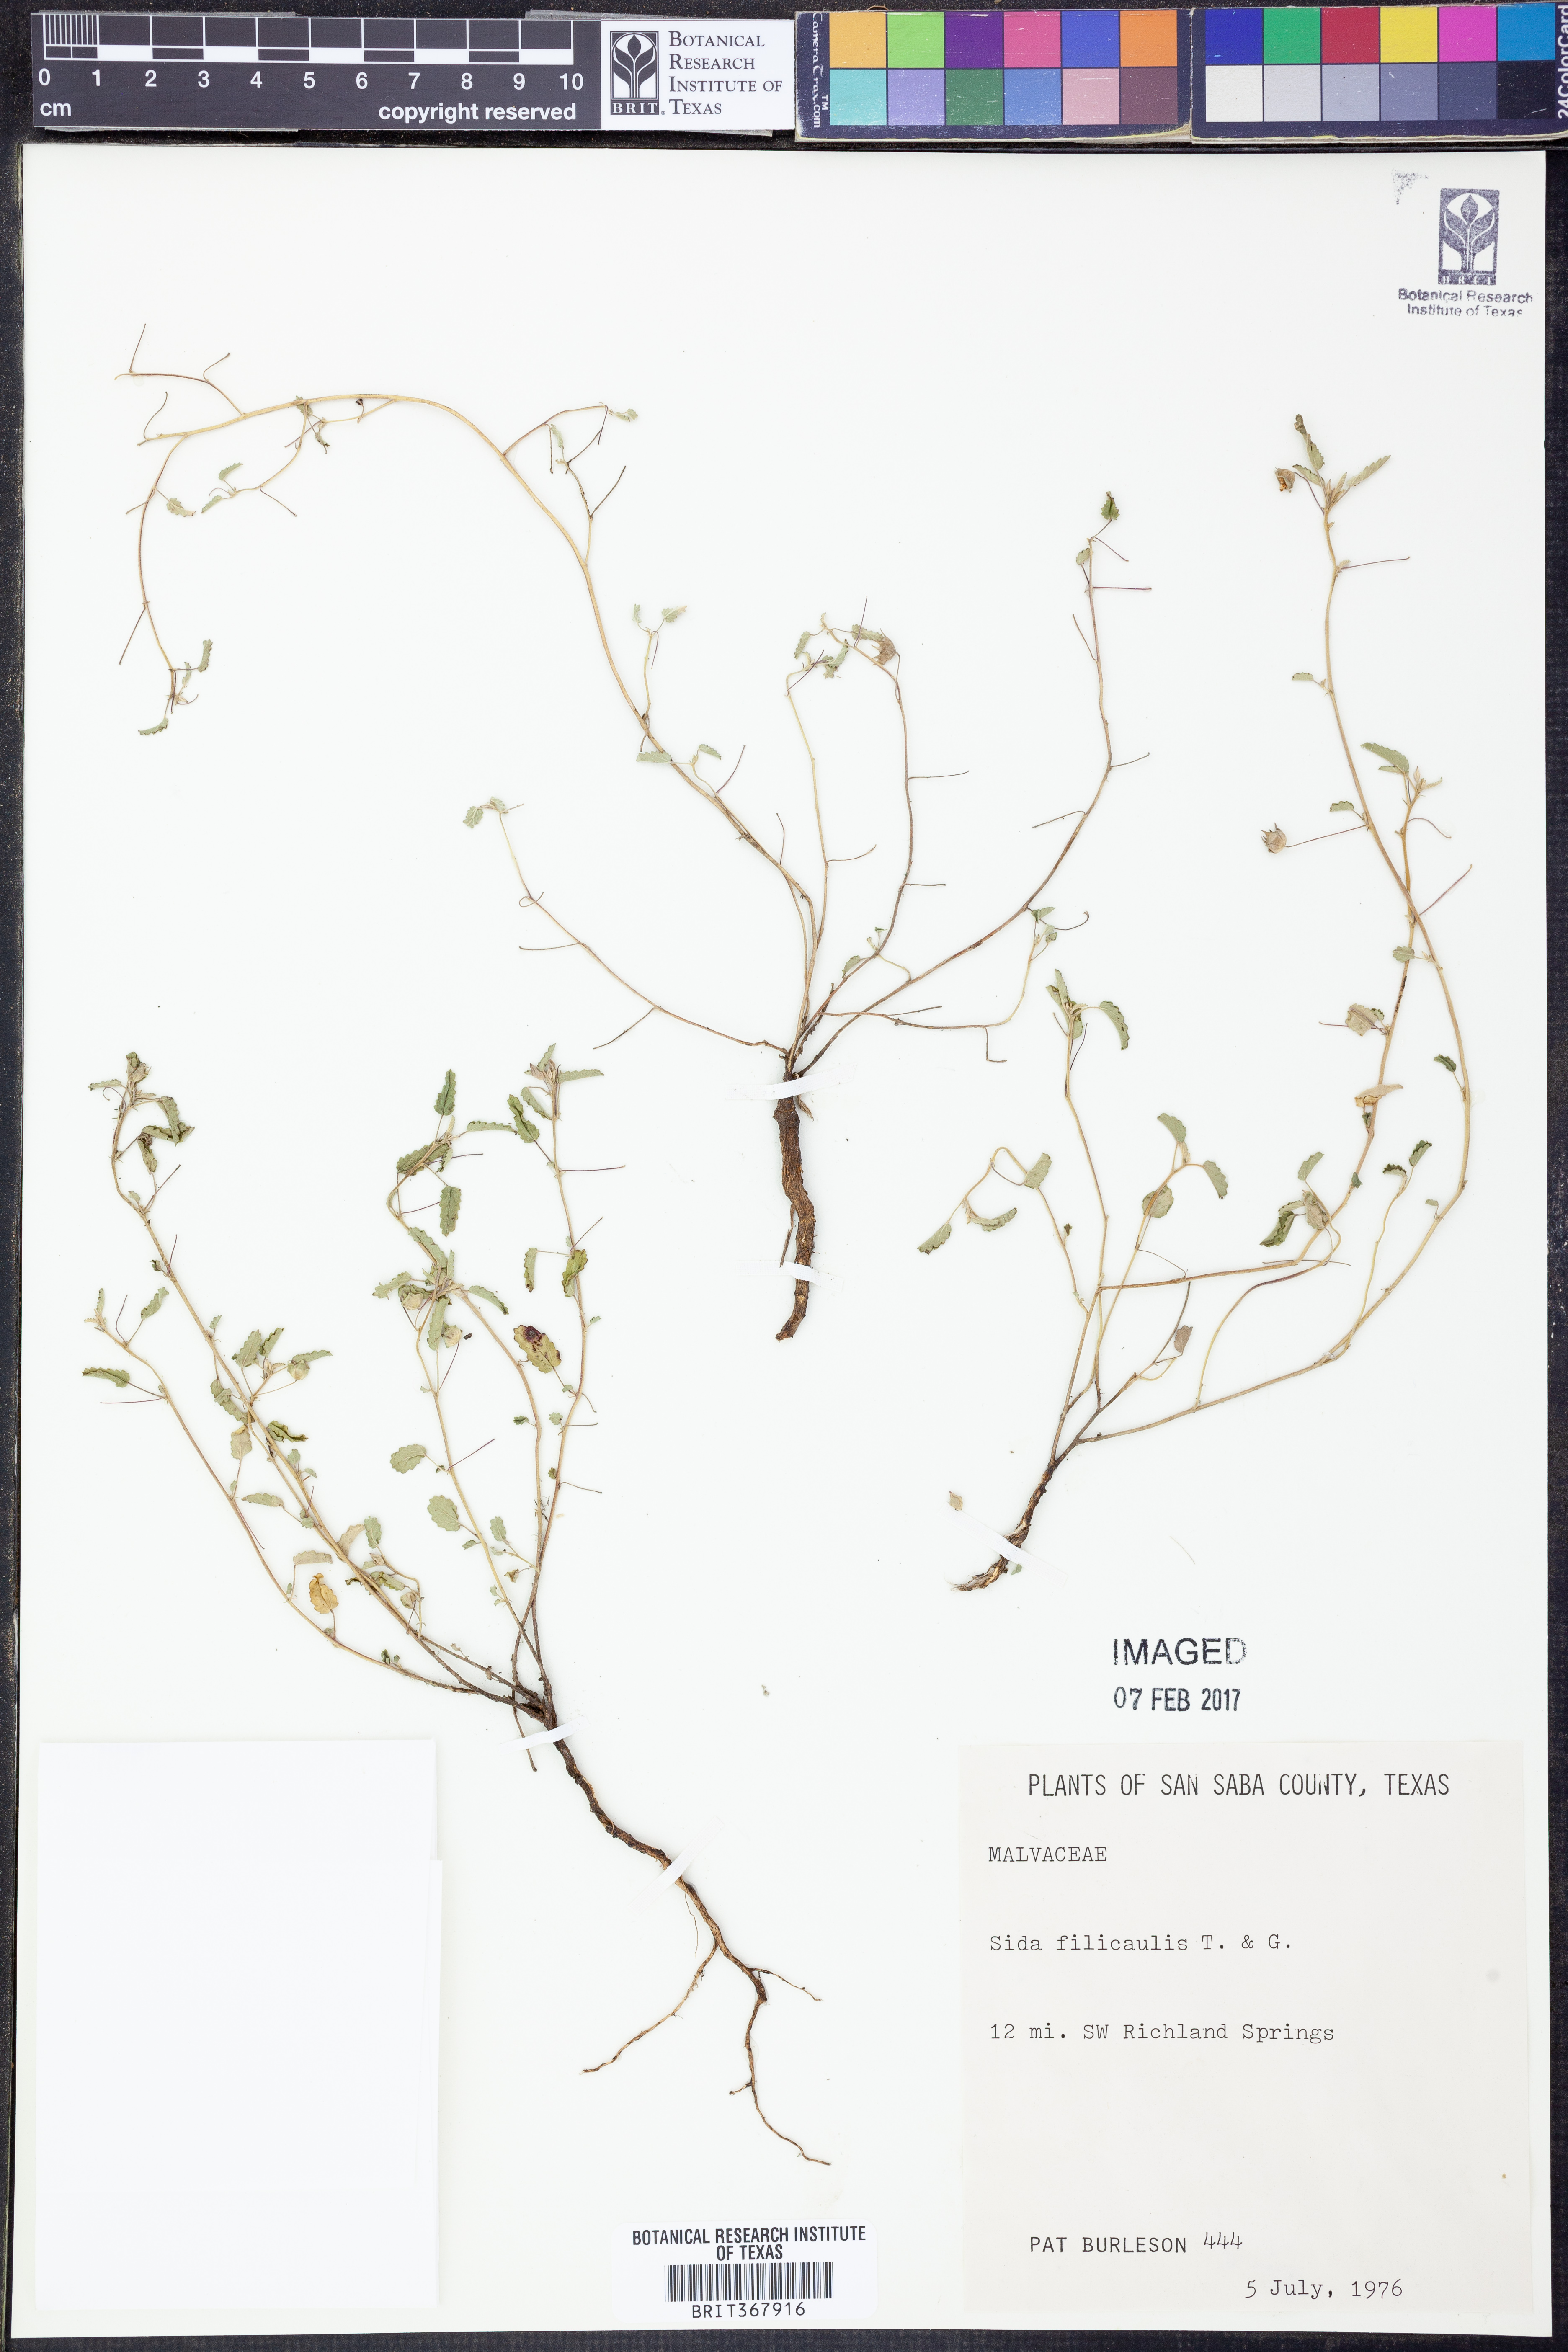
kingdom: Plantae
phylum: Tracheophyta
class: Magnoliopsida
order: Malvales
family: Malvaceae
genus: Sida
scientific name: Sida abutilifolia
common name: Spreading fanpetals
